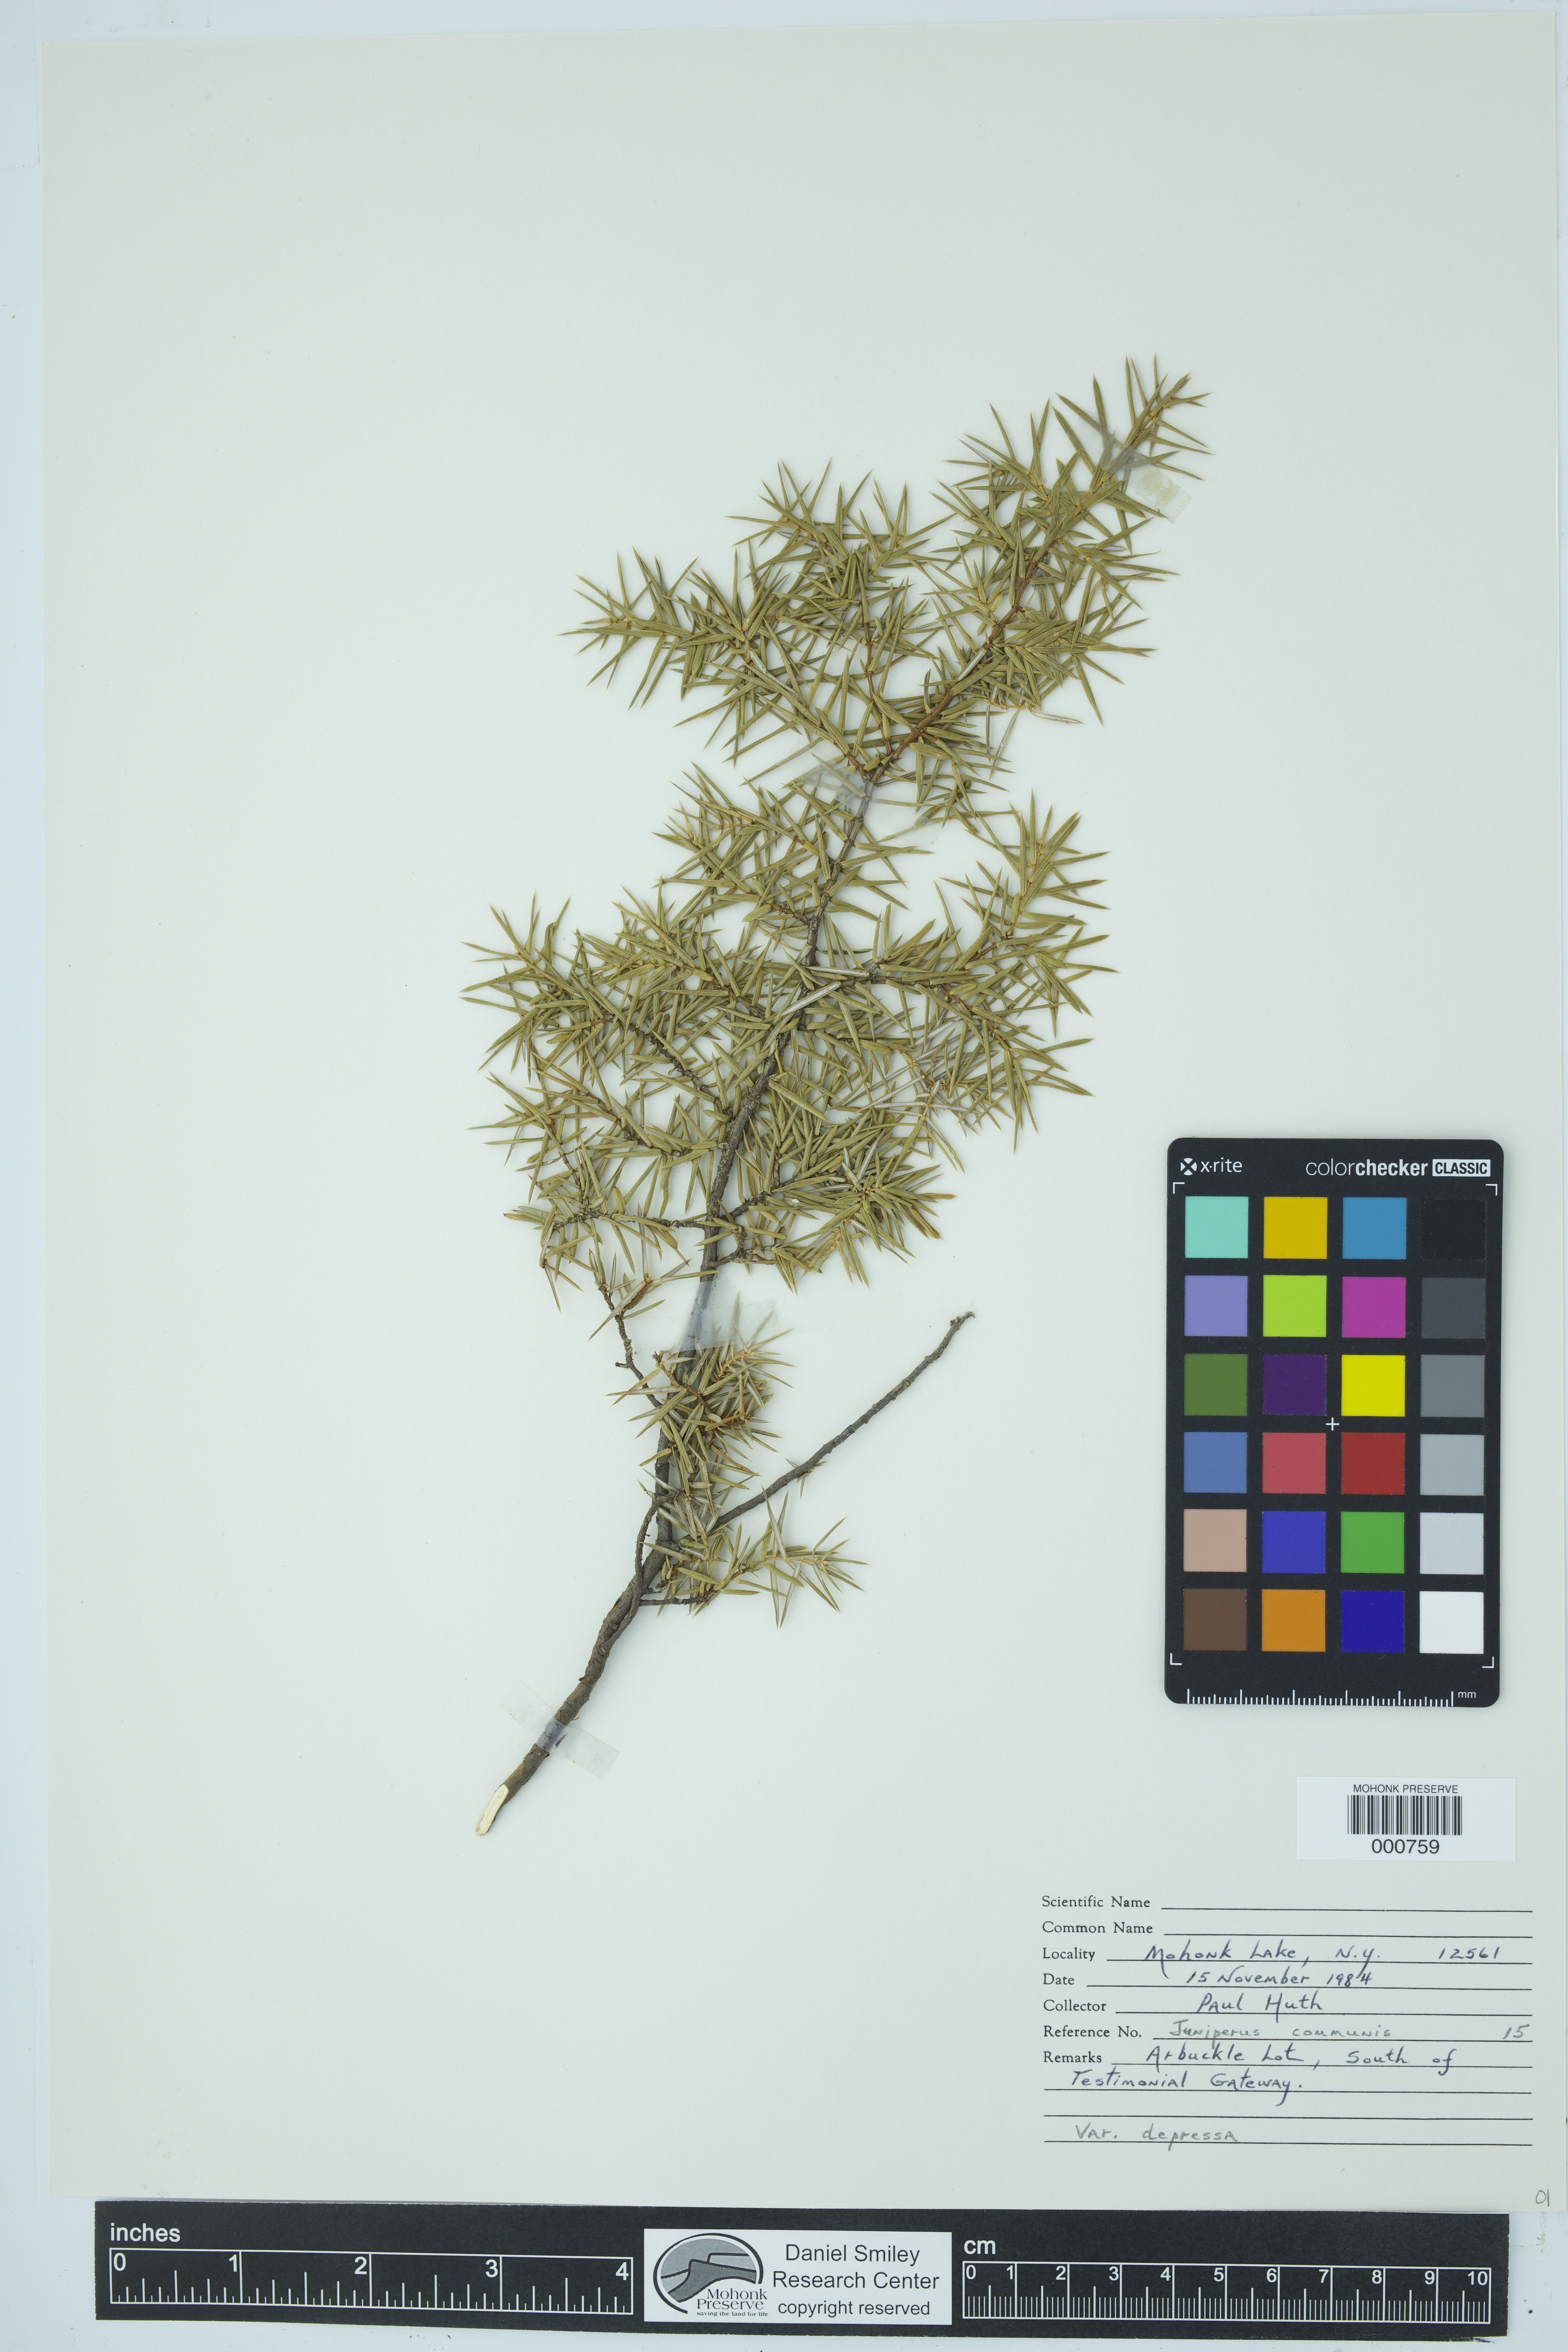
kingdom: Plantae
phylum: Tracheophyta
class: Pinopsida
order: Pinales
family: Cupressaceae
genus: Juniperus
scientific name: Juniperus communis
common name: Common juniper
